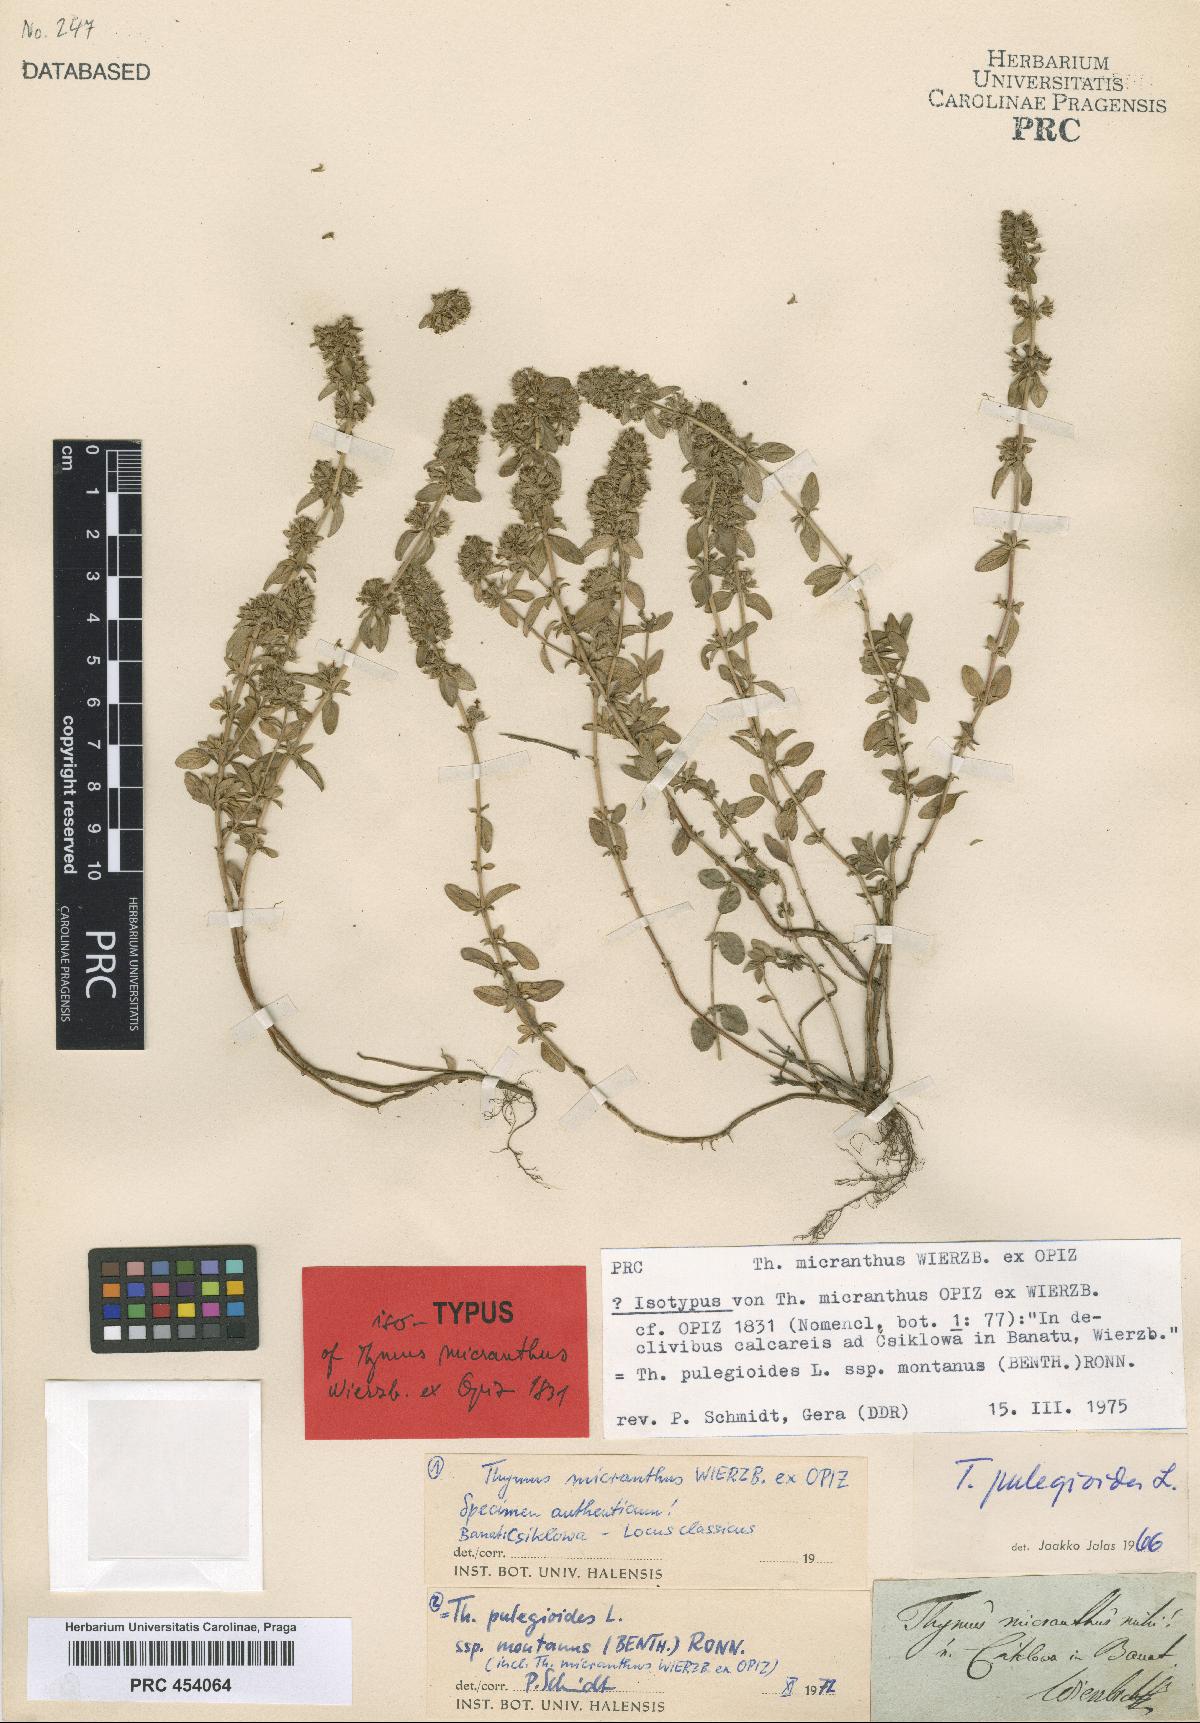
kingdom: Plantae
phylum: Tracheophyta
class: Magnoliopsida
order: Lamiales
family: Lamiaceae
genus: Thymus
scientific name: Thymus pulegioides
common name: Large thyme
